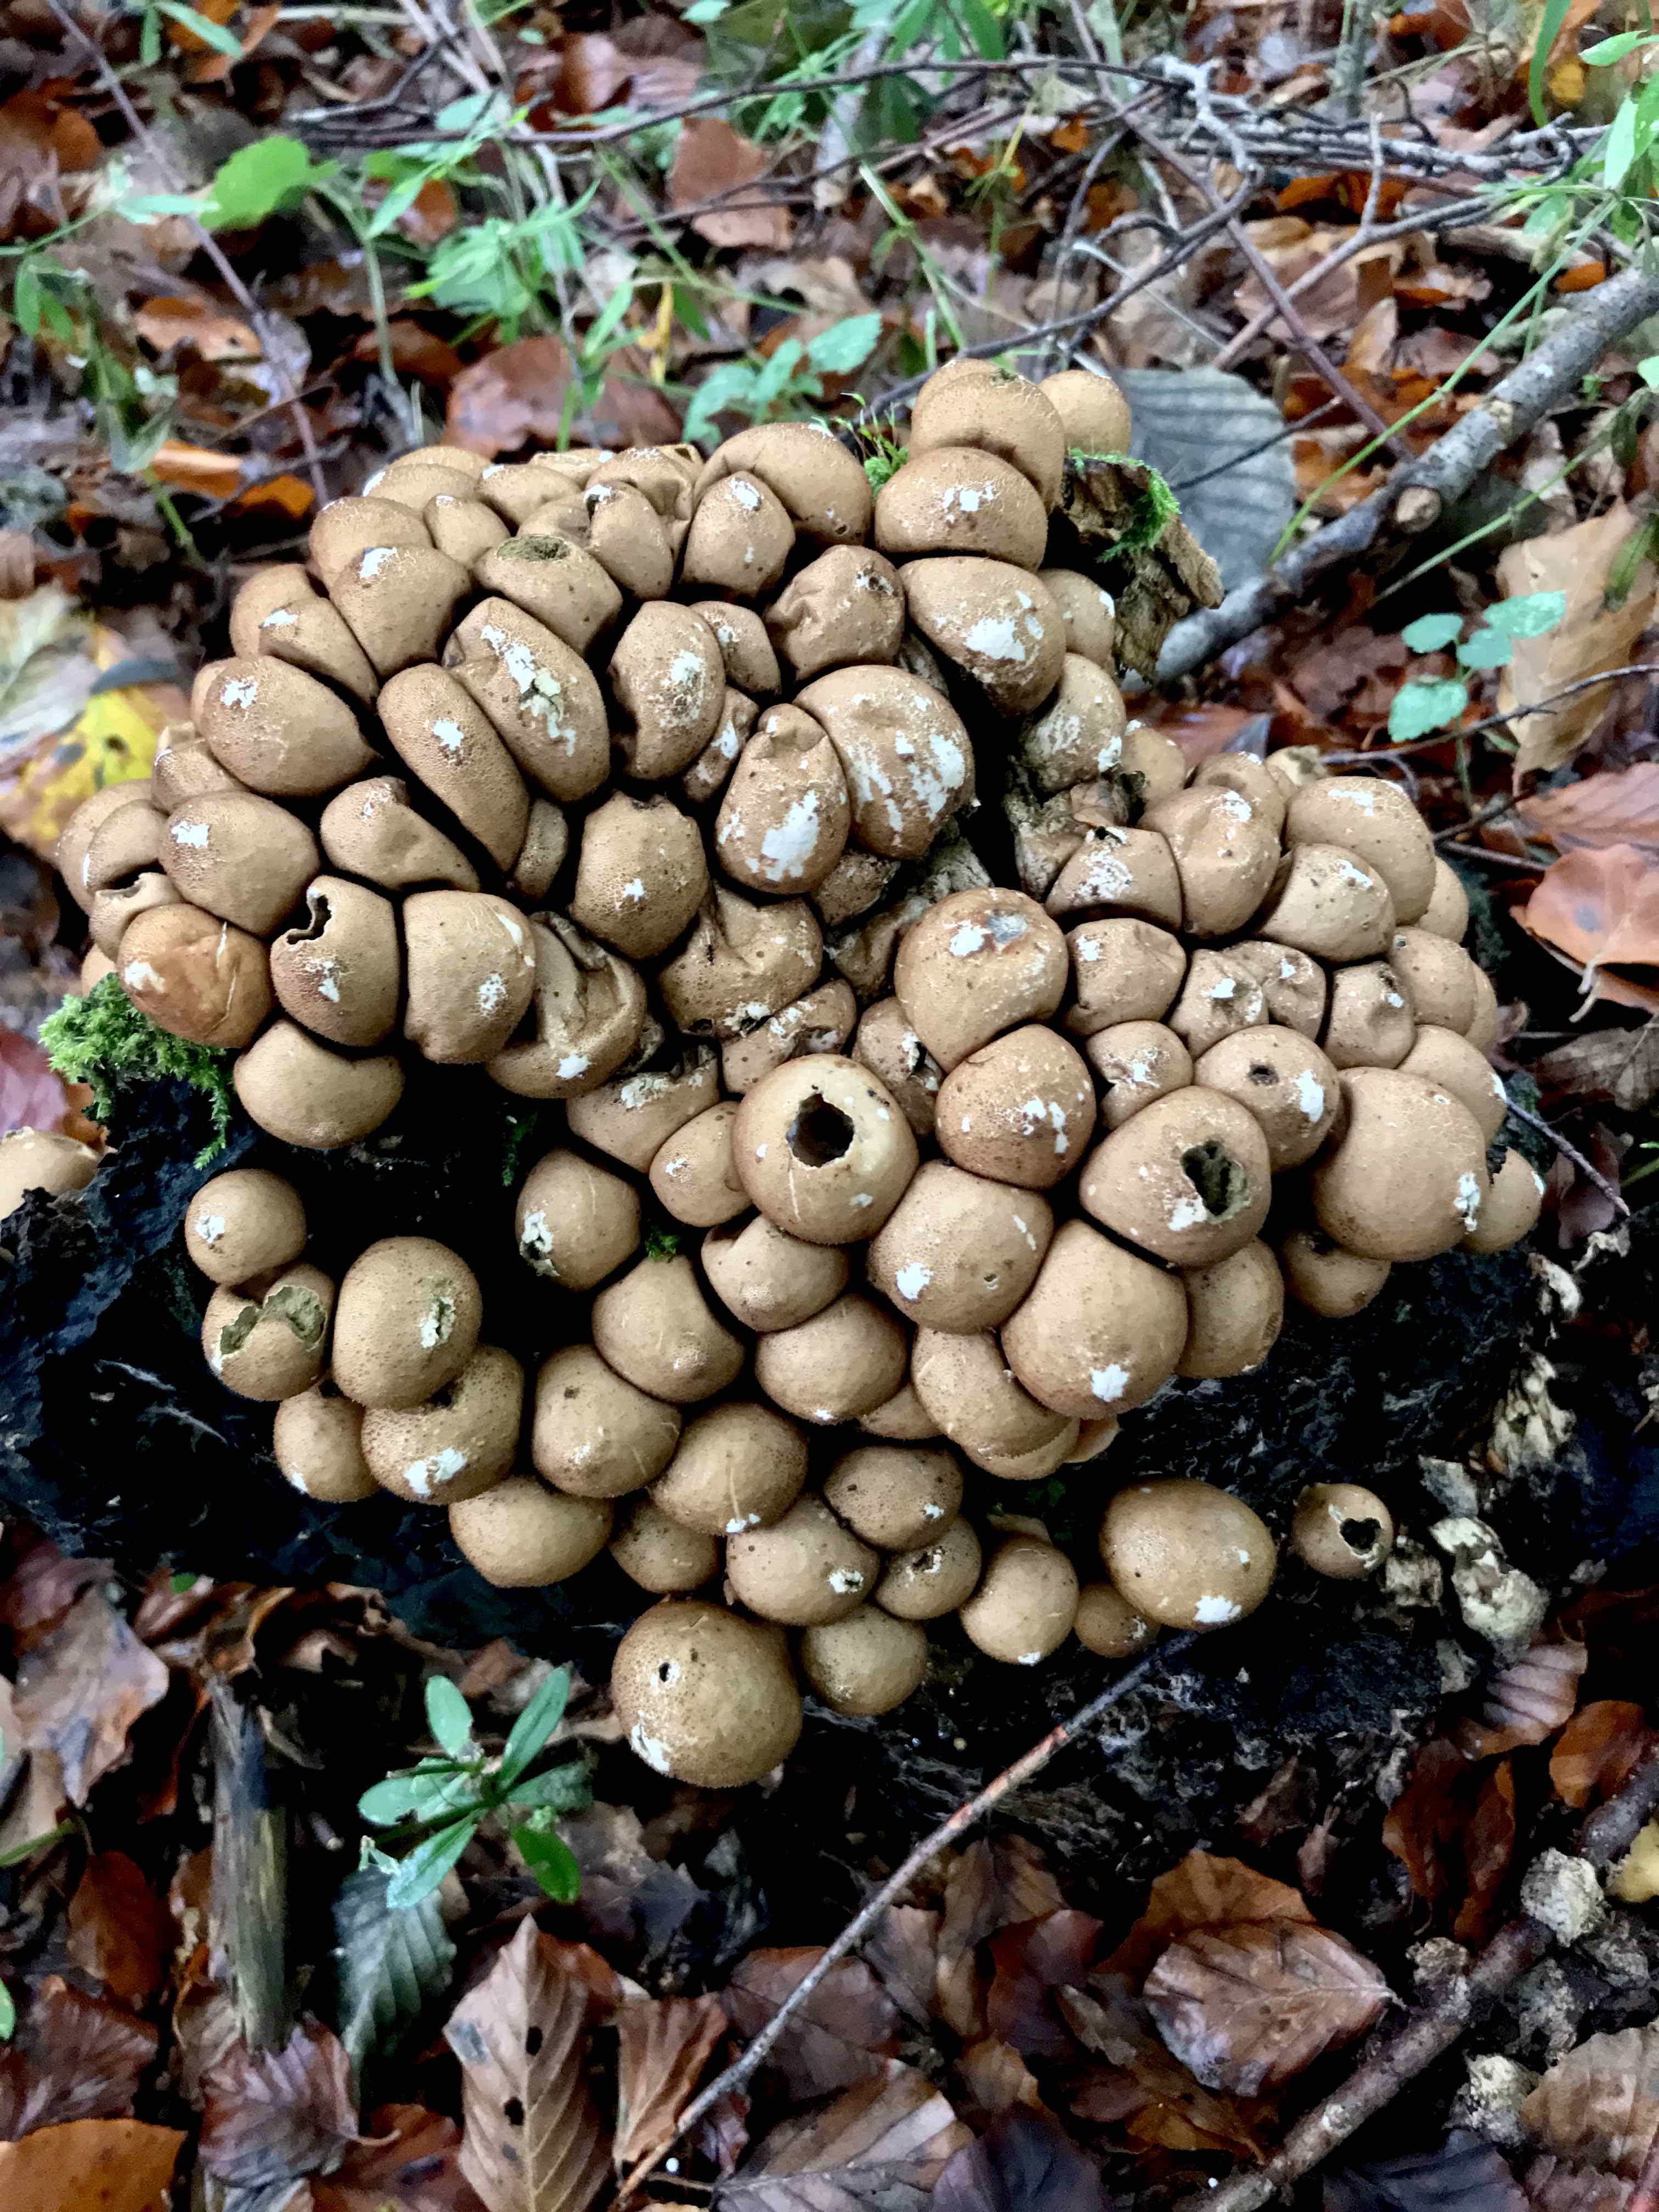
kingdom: Fungi
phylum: Basidiomycota
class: Agaricomycetes
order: Agaricales
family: Lycoperdaceae
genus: Apioperdon
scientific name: Apioperdon pyriforme
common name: pære-støvbold
